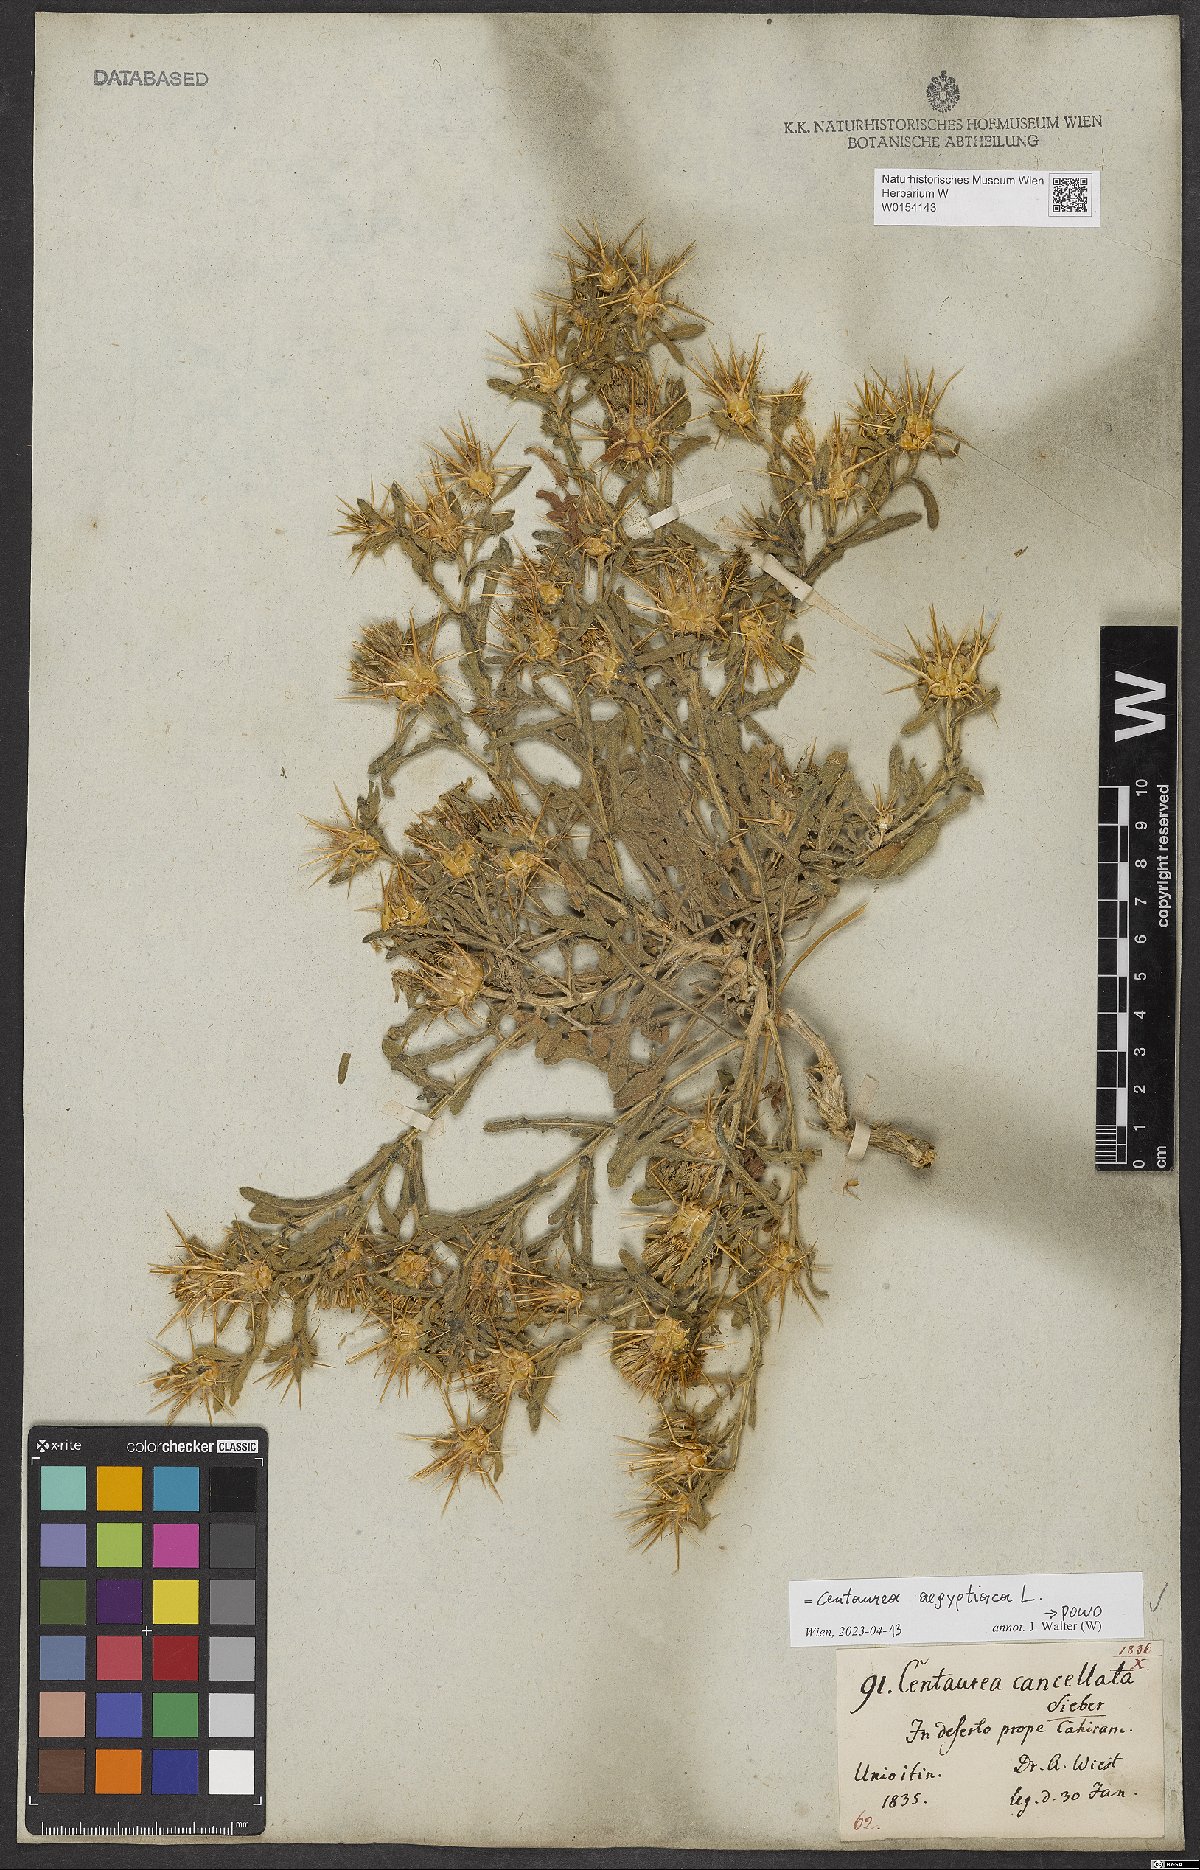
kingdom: Plantae
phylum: Tracheophyta
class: Magnoliopsida
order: Asterales
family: Asteraceae
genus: Centaurea
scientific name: Centaurea aegyptiaca
